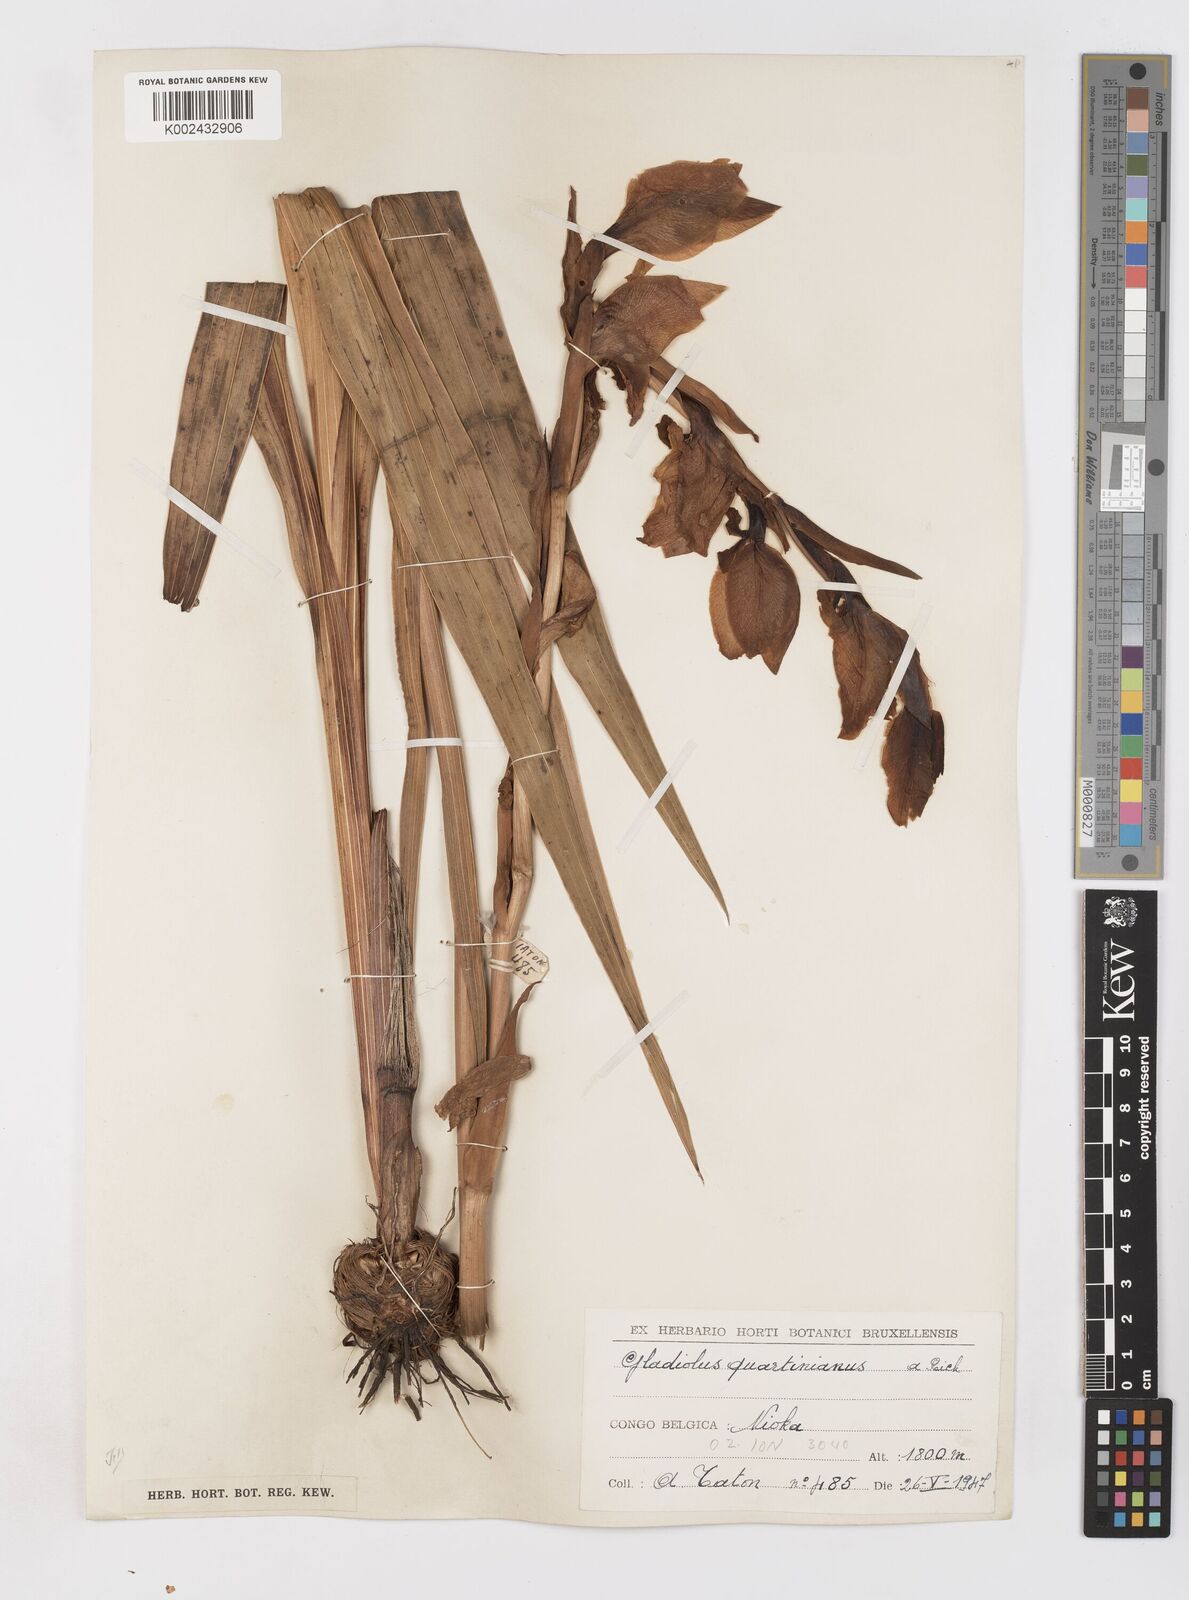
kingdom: Plantae
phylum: Tracheophyta
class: Liliopsida
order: Asparagales
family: Iridaceae
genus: Gladiolus
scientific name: Gladiolus dalenii
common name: Cornflag
